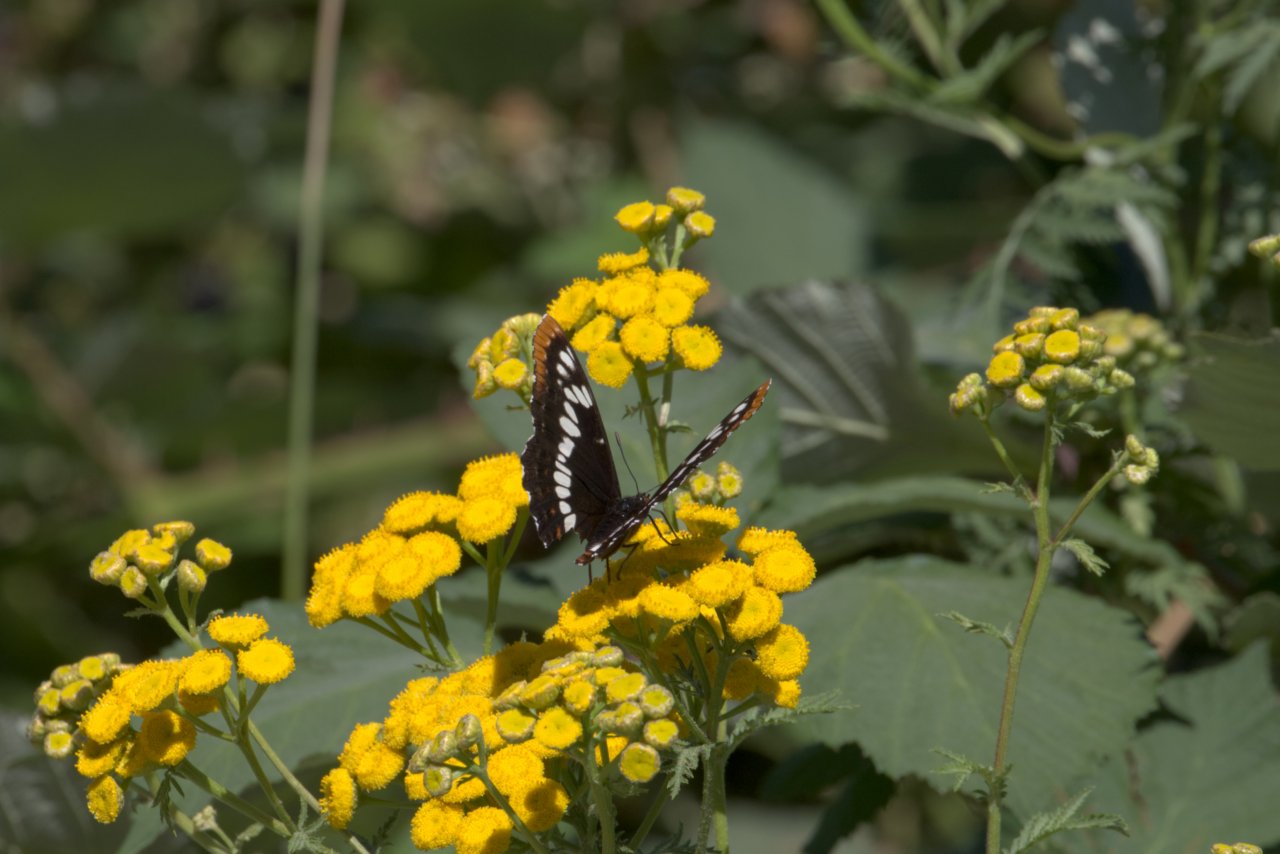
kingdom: Animalia
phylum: Arthropoda
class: Insecta
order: Lepidoptera
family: Nymphalidae
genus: Limenitis
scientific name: Limenitis lorquini
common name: Lorquin's Admiral
